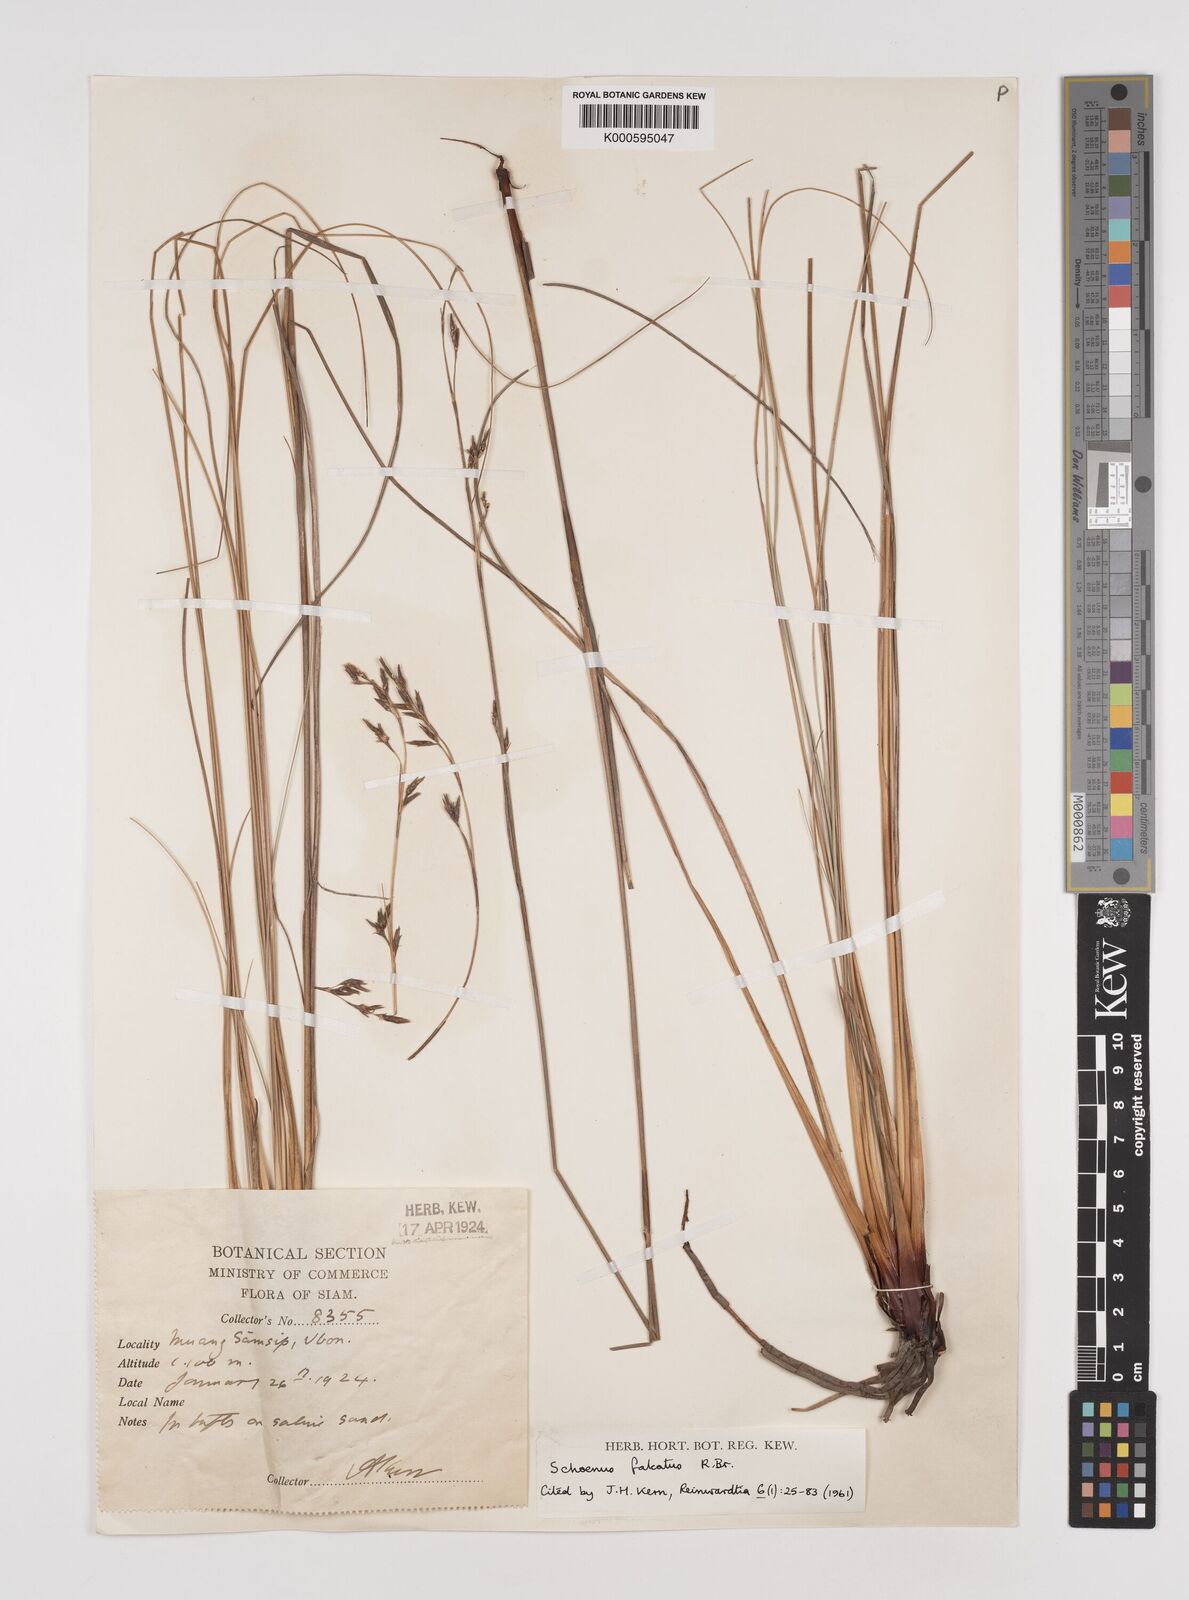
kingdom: Plantae
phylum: Tracheophyta
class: Liliopsida
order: Poales
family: Cyperaceae
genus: Schoenus
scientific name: Schoenus falcatus
